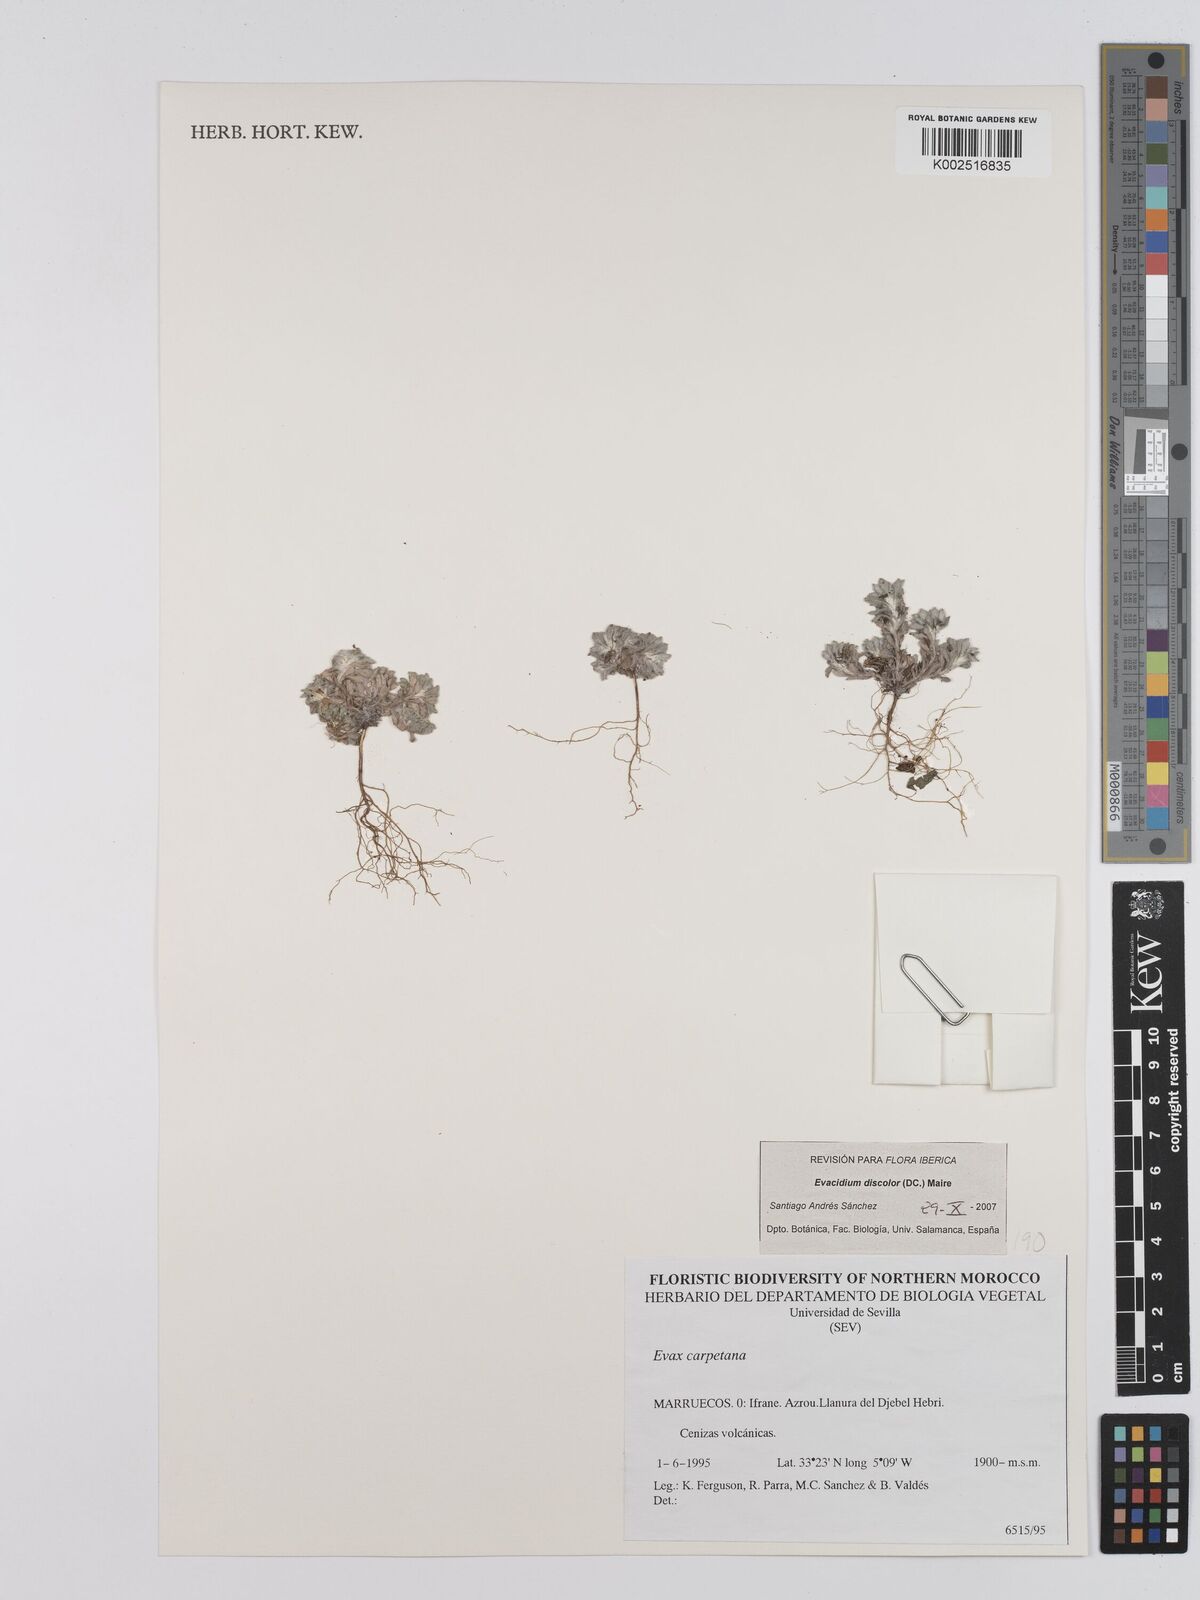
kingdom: Plantae
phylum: Tracheophyta
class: Magnoliopsida
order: Asterales
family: Asteraceae
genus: Filago
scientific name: Filago carpetana
